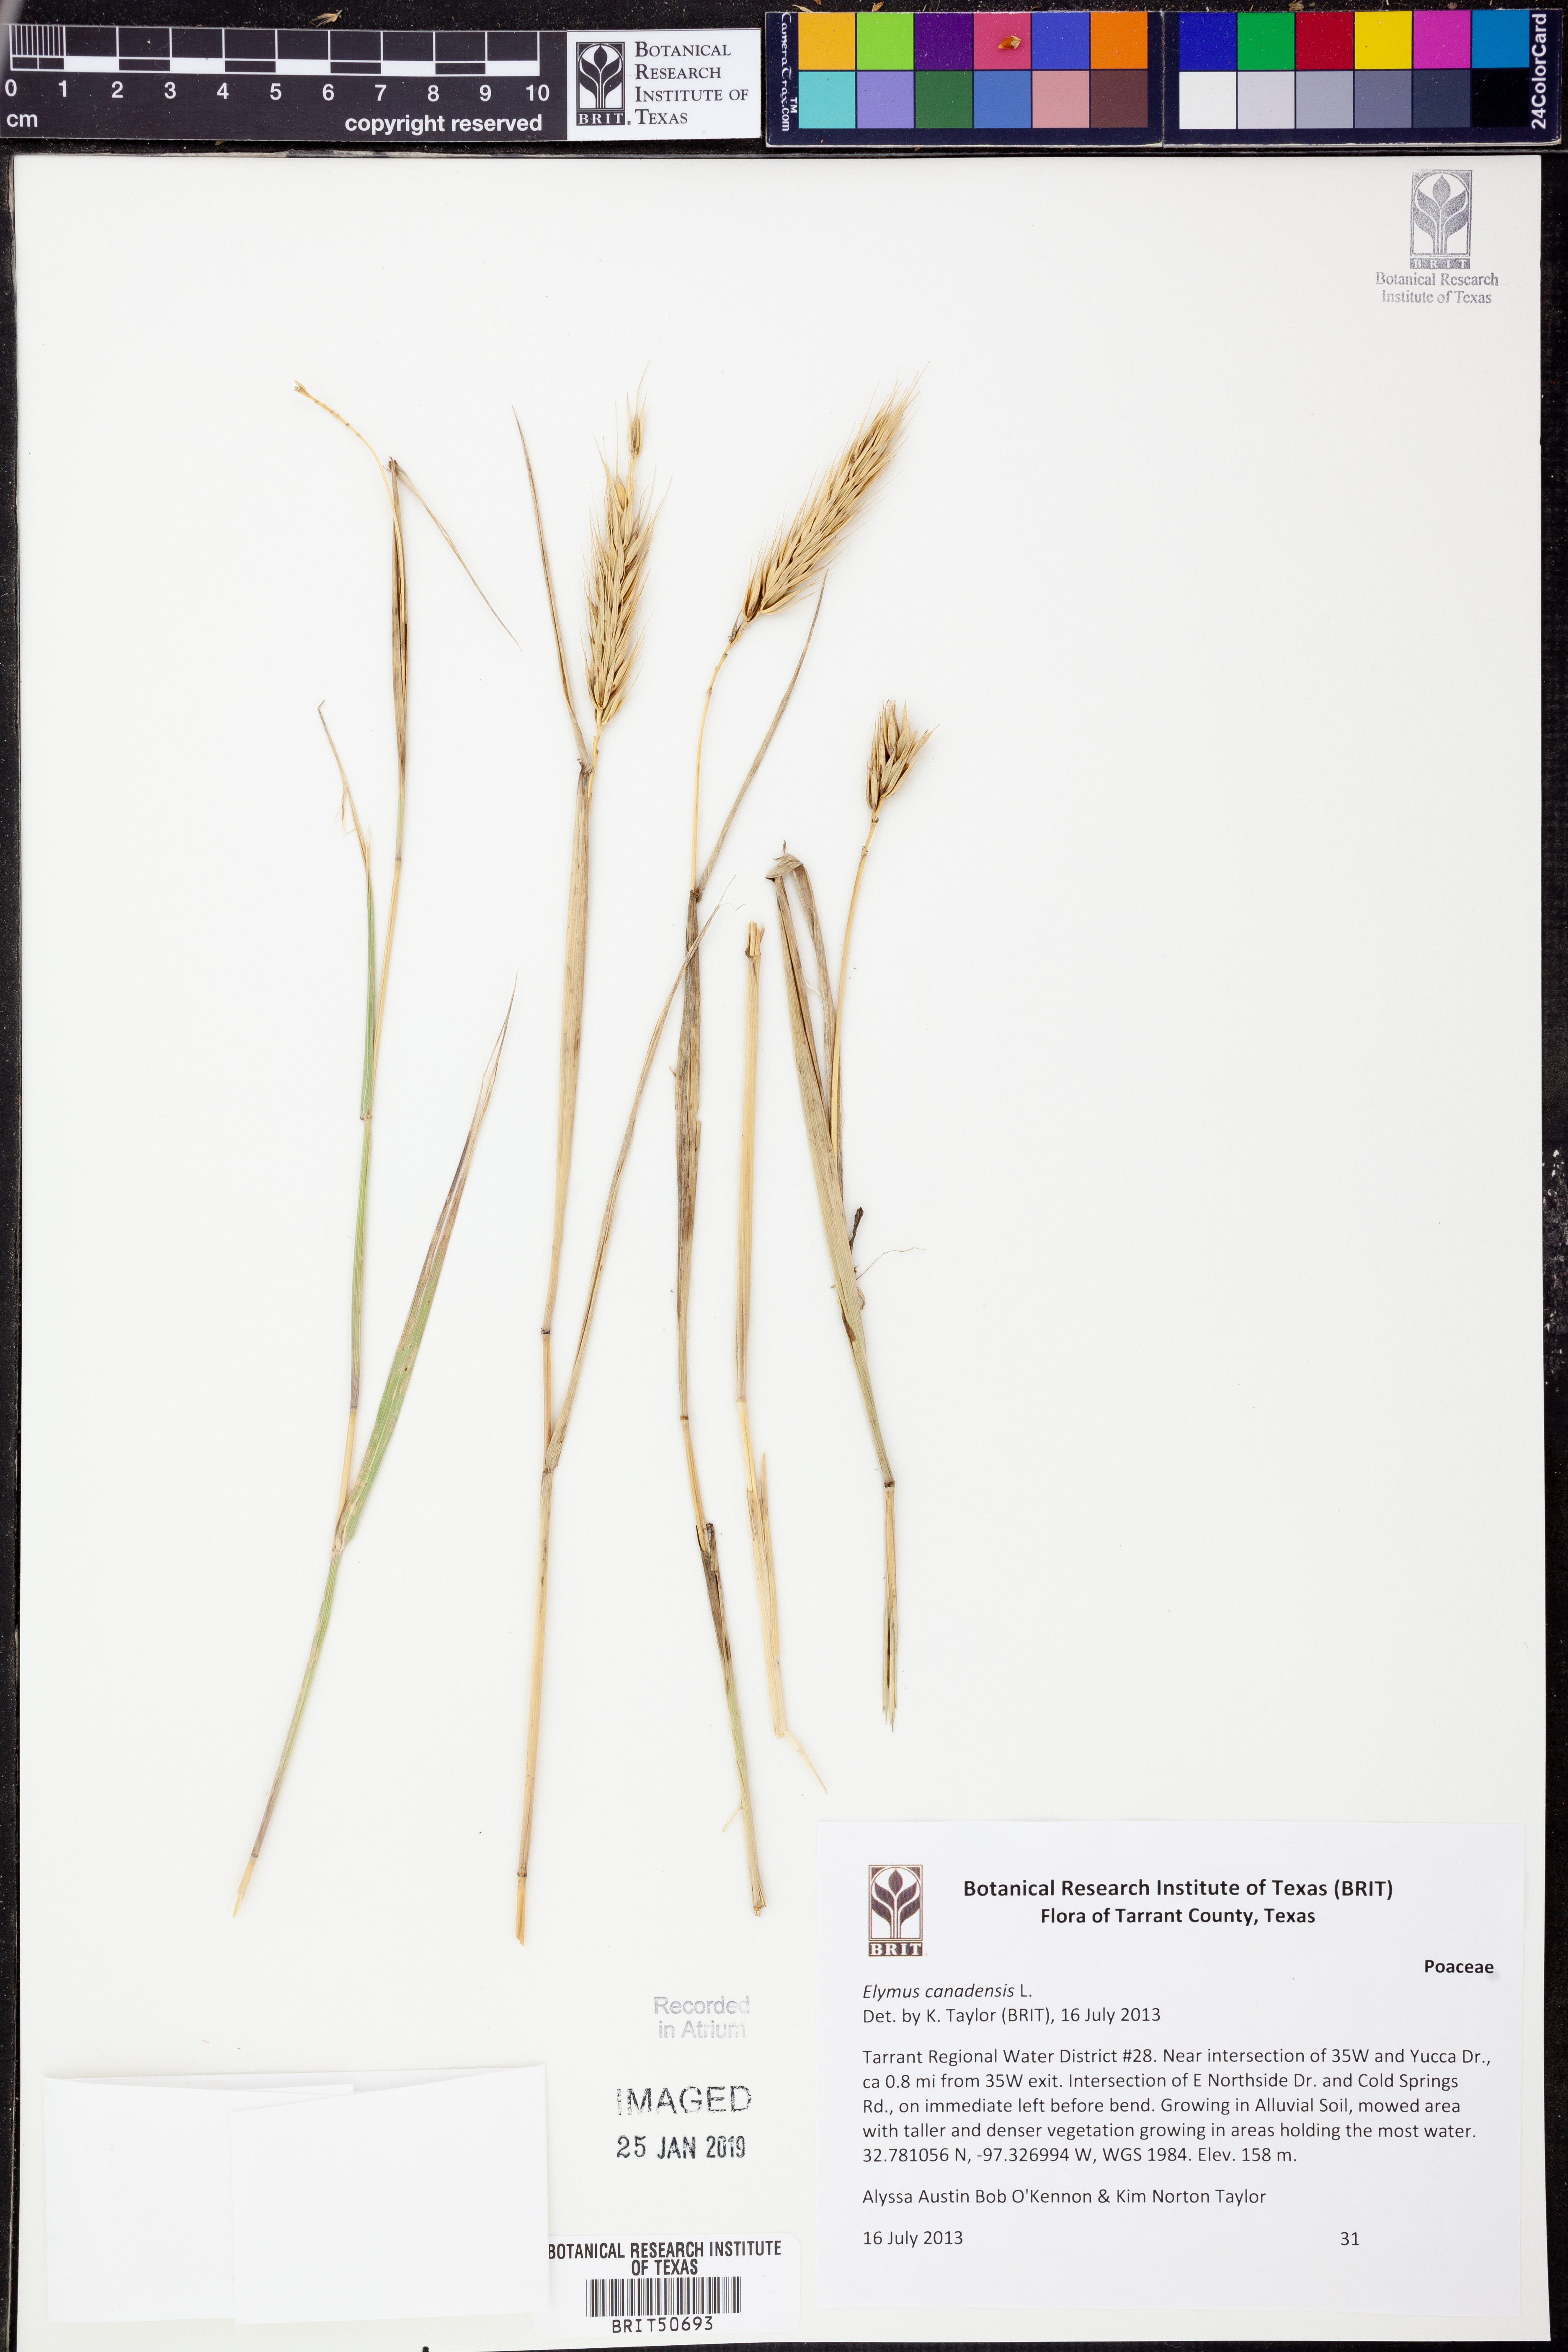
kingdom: Plantae
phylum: Tracheophyta
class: Liliopsida
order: Poales
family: Poaceae
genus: Elymus
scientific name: Elymus canadensis
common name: Canada wild rye
